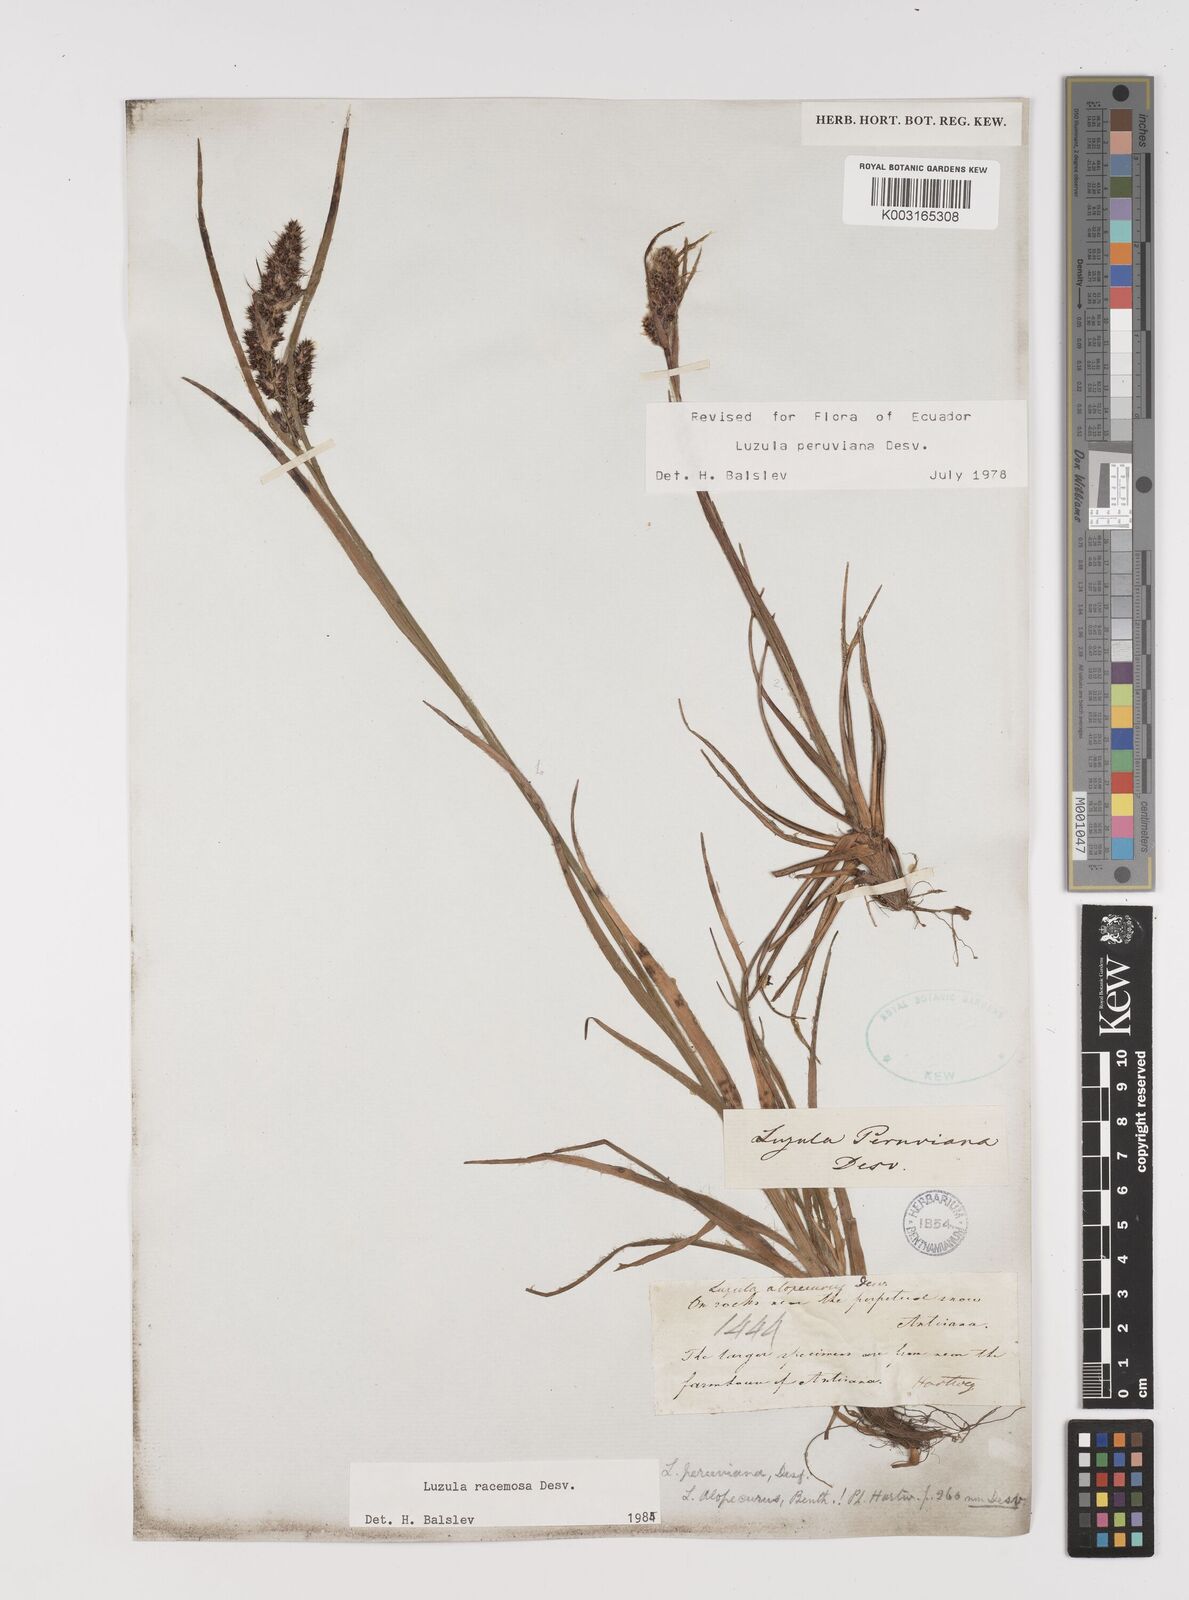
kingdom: Plantae
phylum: Tracheophyta
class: Liliopsida
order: Poales
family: Juncaceae
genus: Luzula
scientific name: Luzula racemosa
